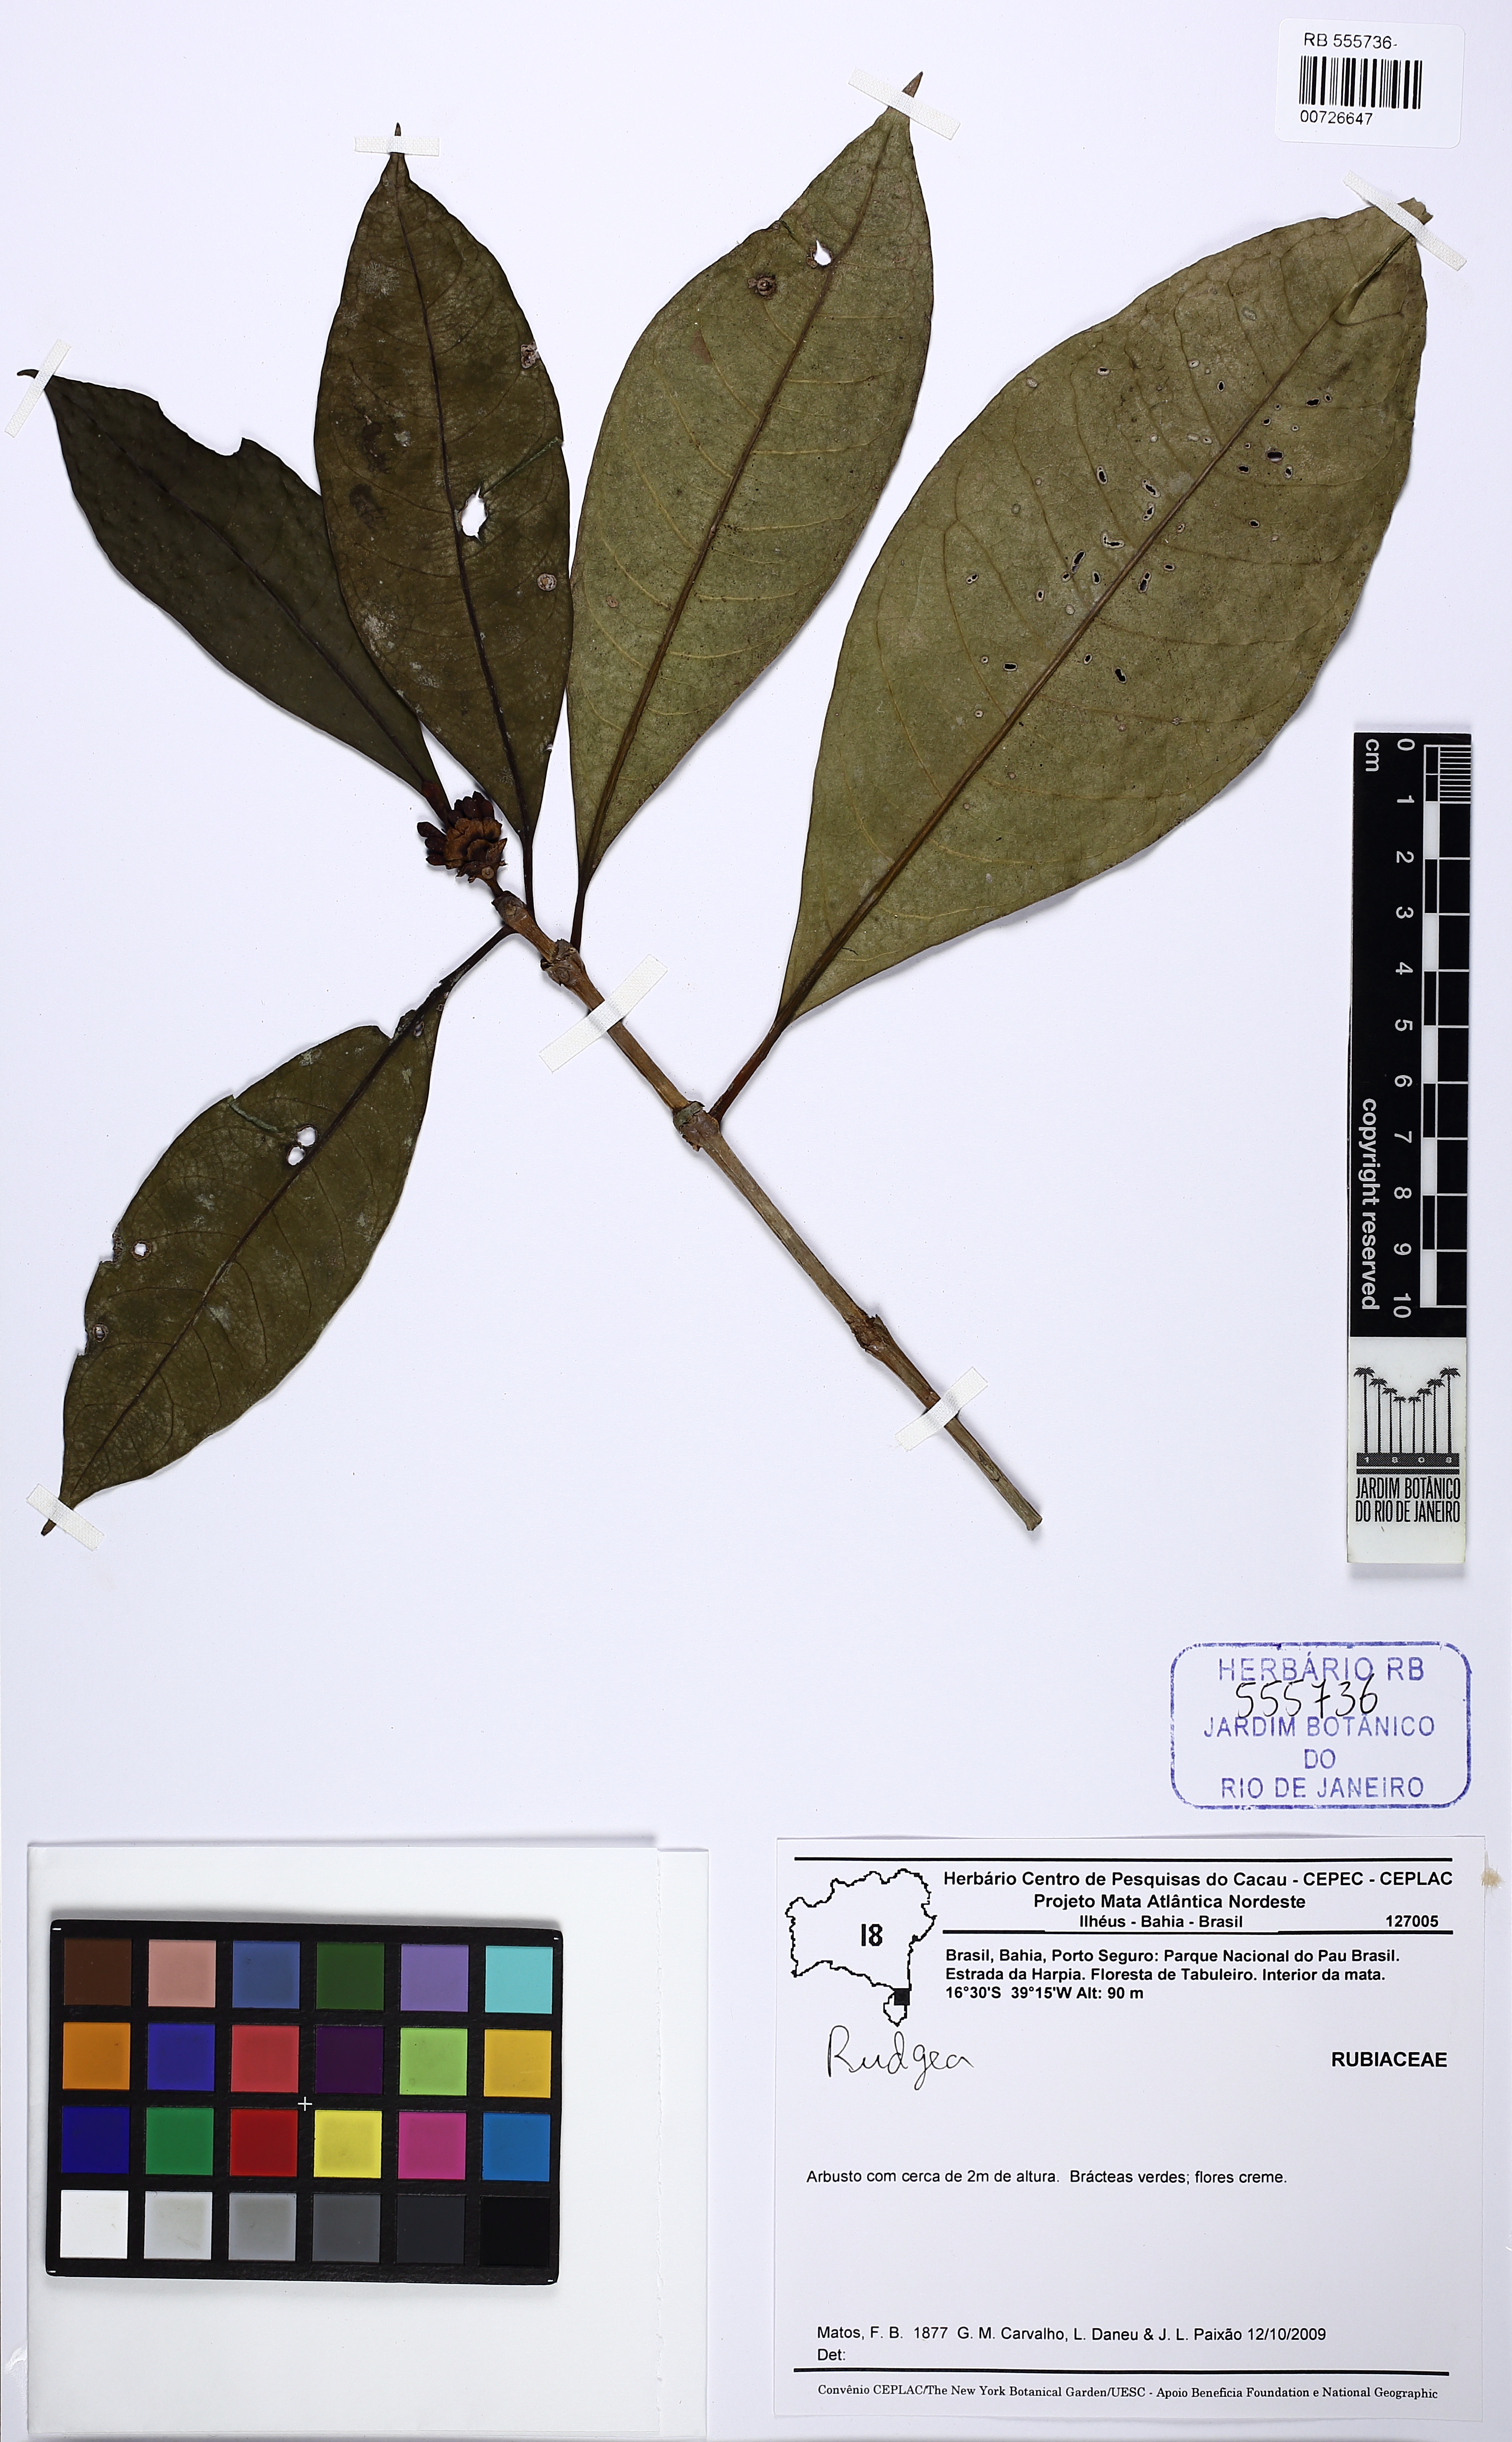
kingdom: Plantae
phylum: Tracheophyta
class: Magnoliopsida
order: Gentianales
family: Rubiaceae
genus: Rudgea
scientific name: Rudgea
